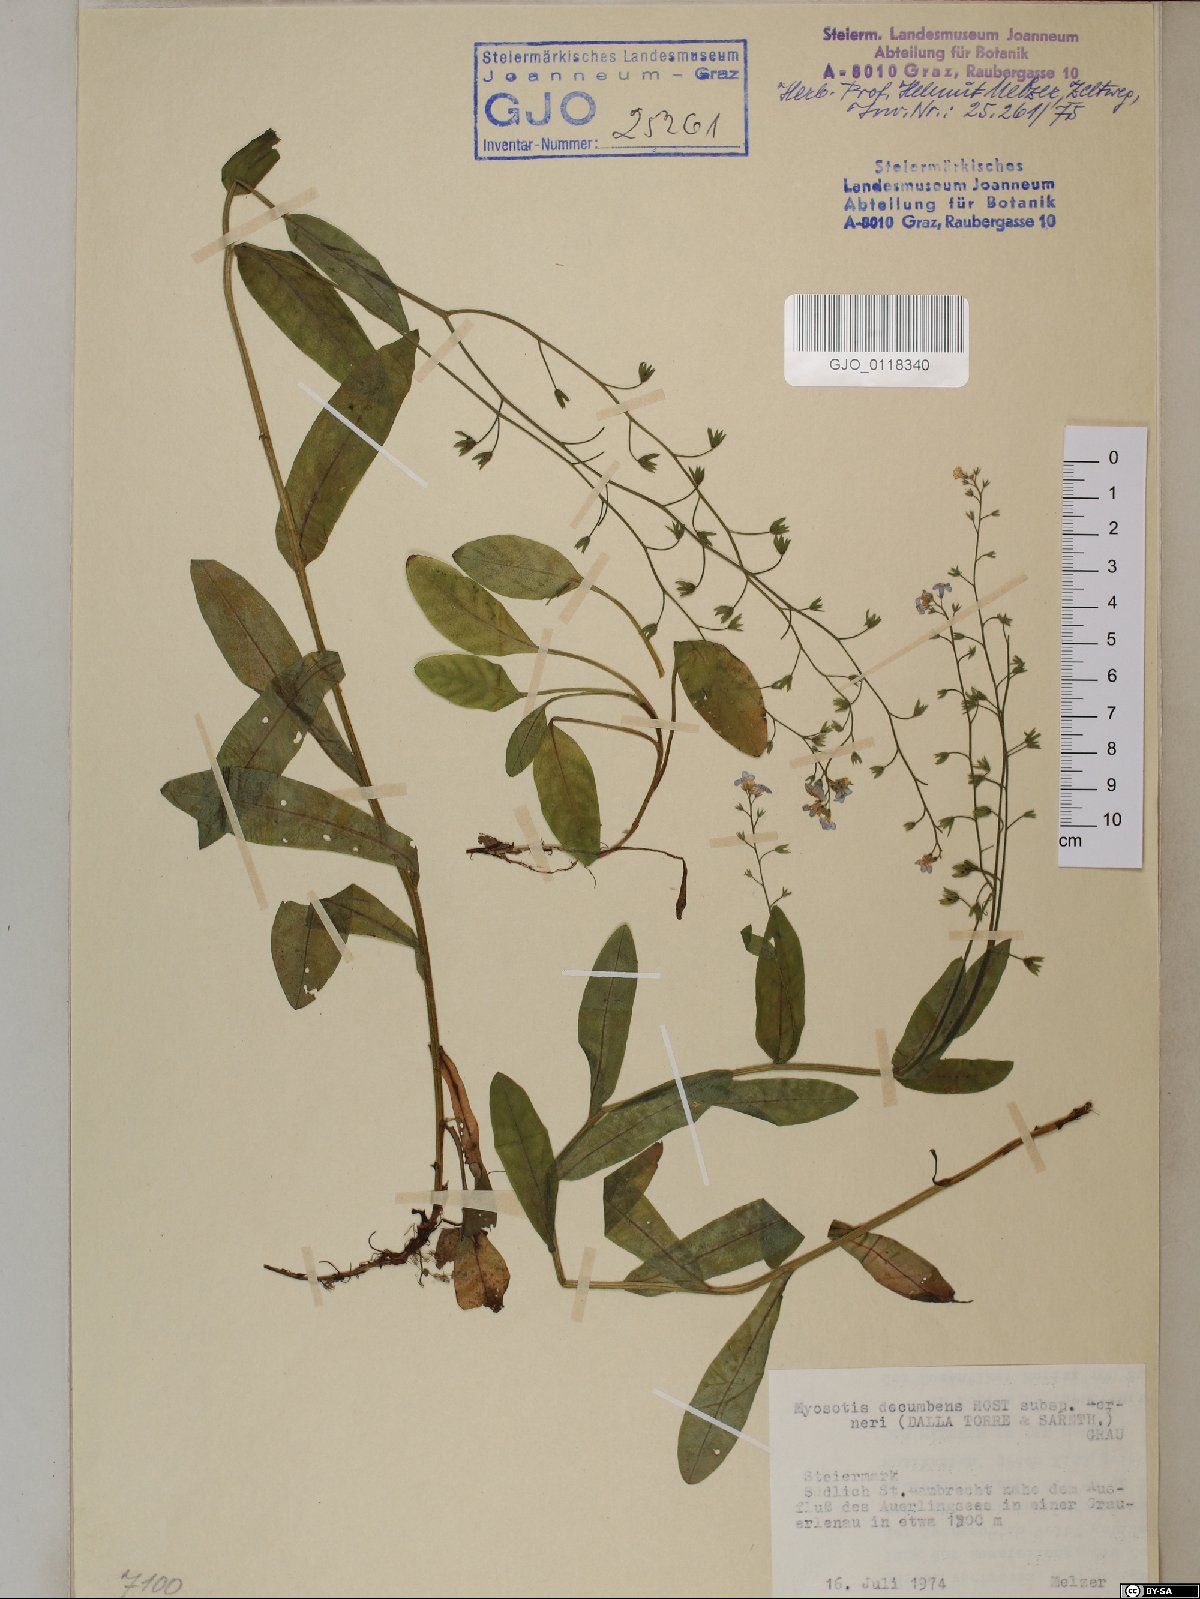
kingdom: Plantae
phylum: Tracheophyta
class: Magnoliopsida
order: Boraginales
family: Boraginaceae
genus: Myosotis
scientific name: Myosotis decumbens
